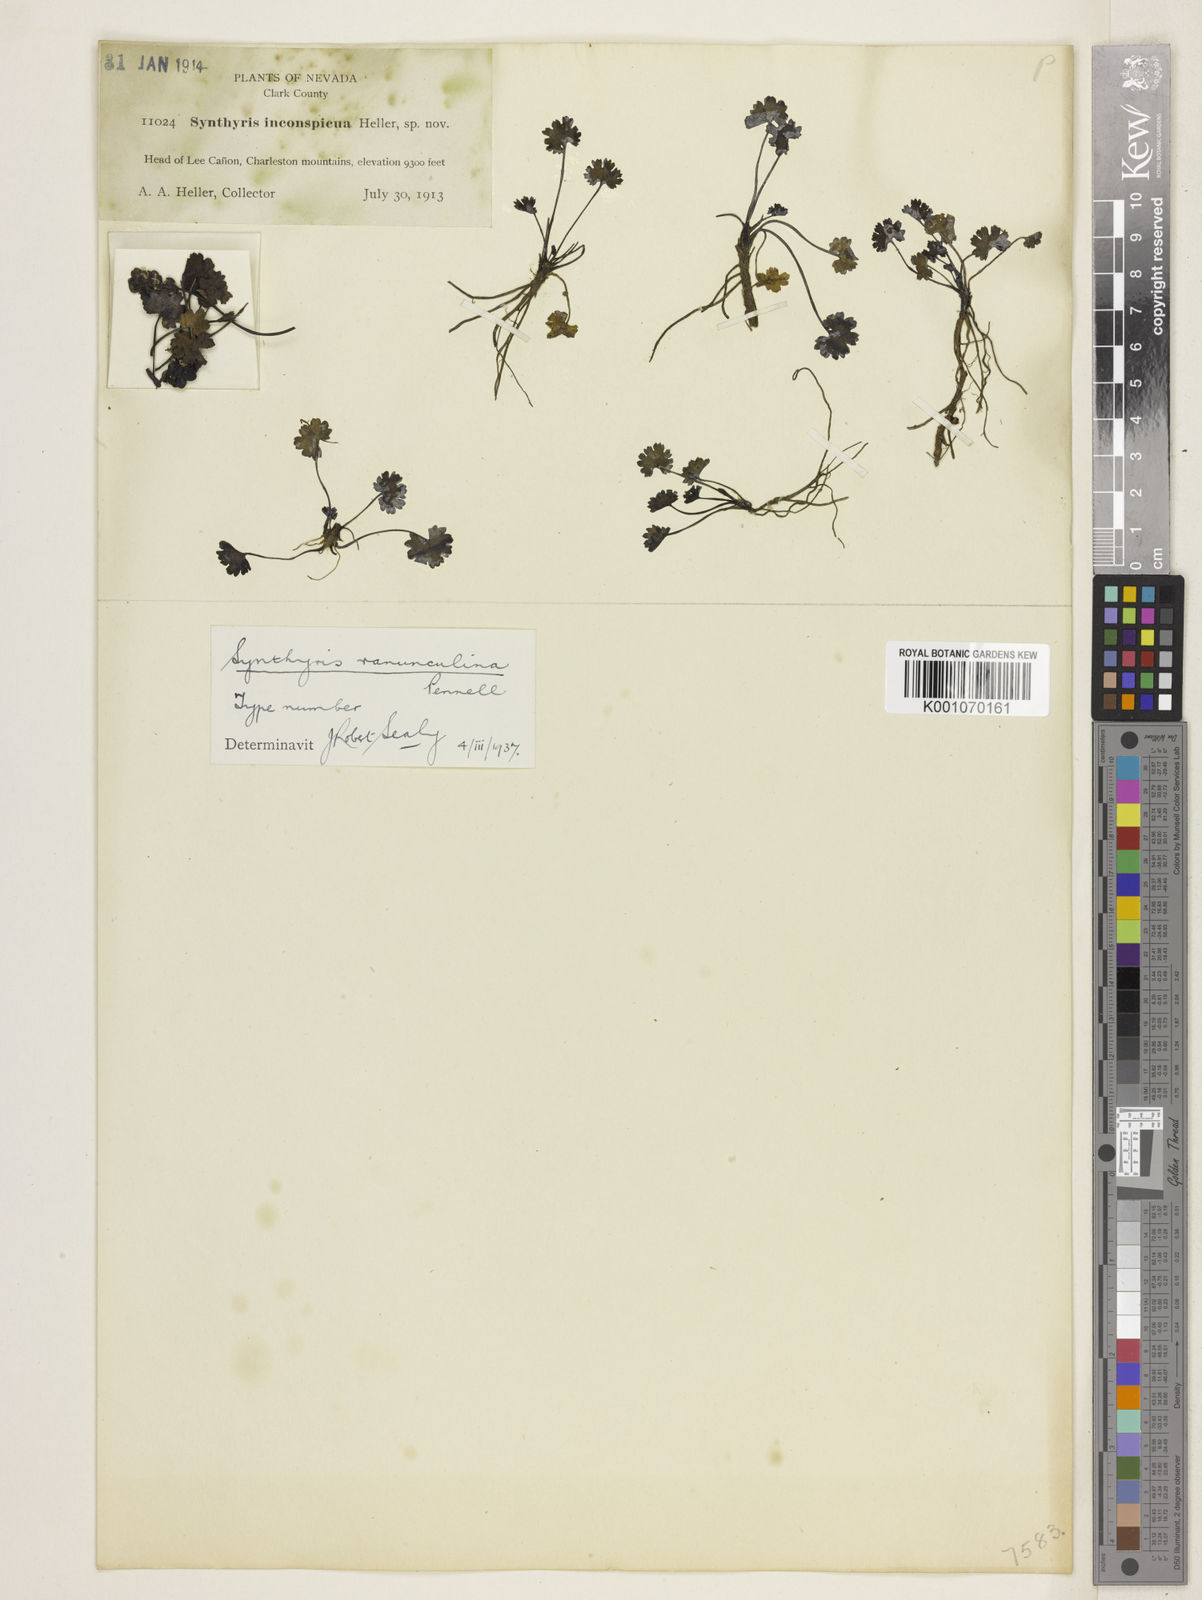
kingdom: Plantae
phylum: Tracheophyta
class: Magnoliopsida
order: Lamiales
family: Plantaginaceae
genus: Synthyris
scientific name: Synthyris ranunculina
